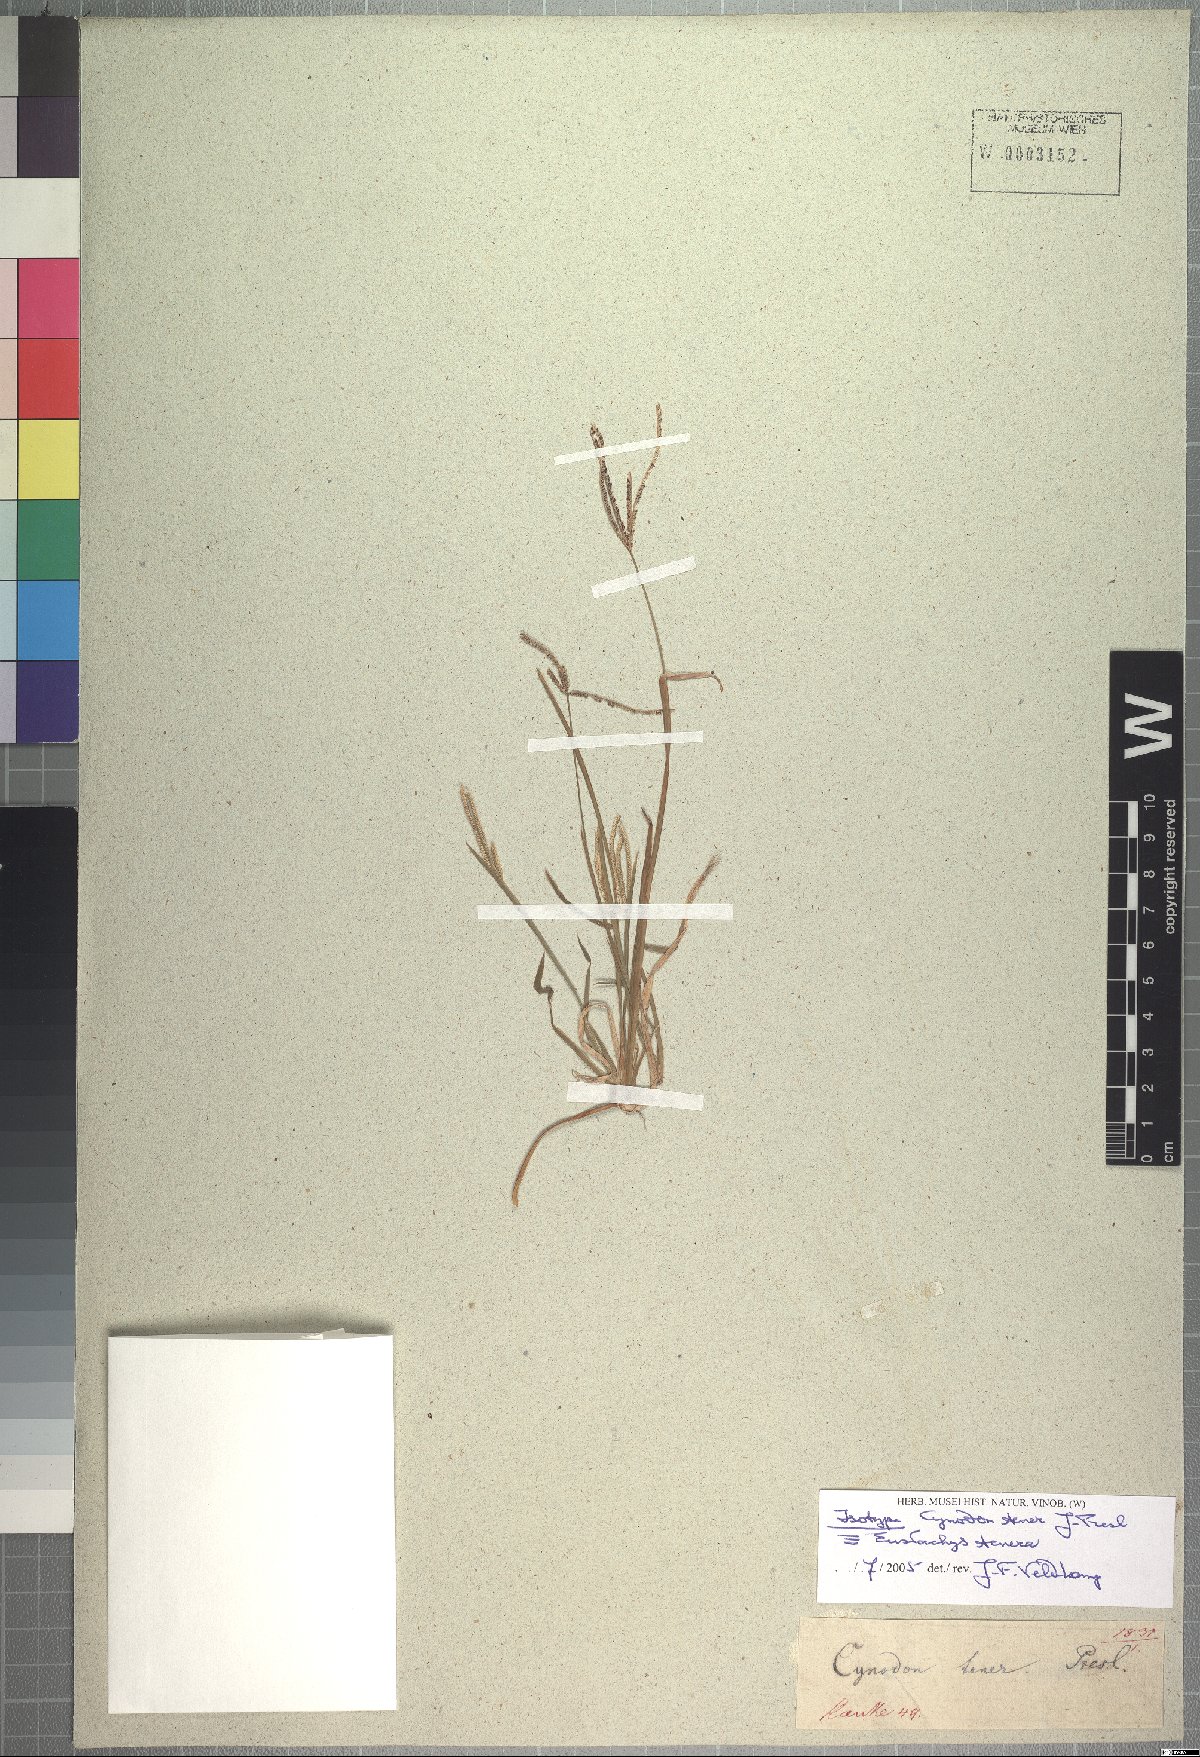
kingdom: Plantae
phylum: Tracheophyta
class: Liliopsida
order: Poales
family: Poaceae
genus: Eustachys
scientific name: Eustachys tenera
